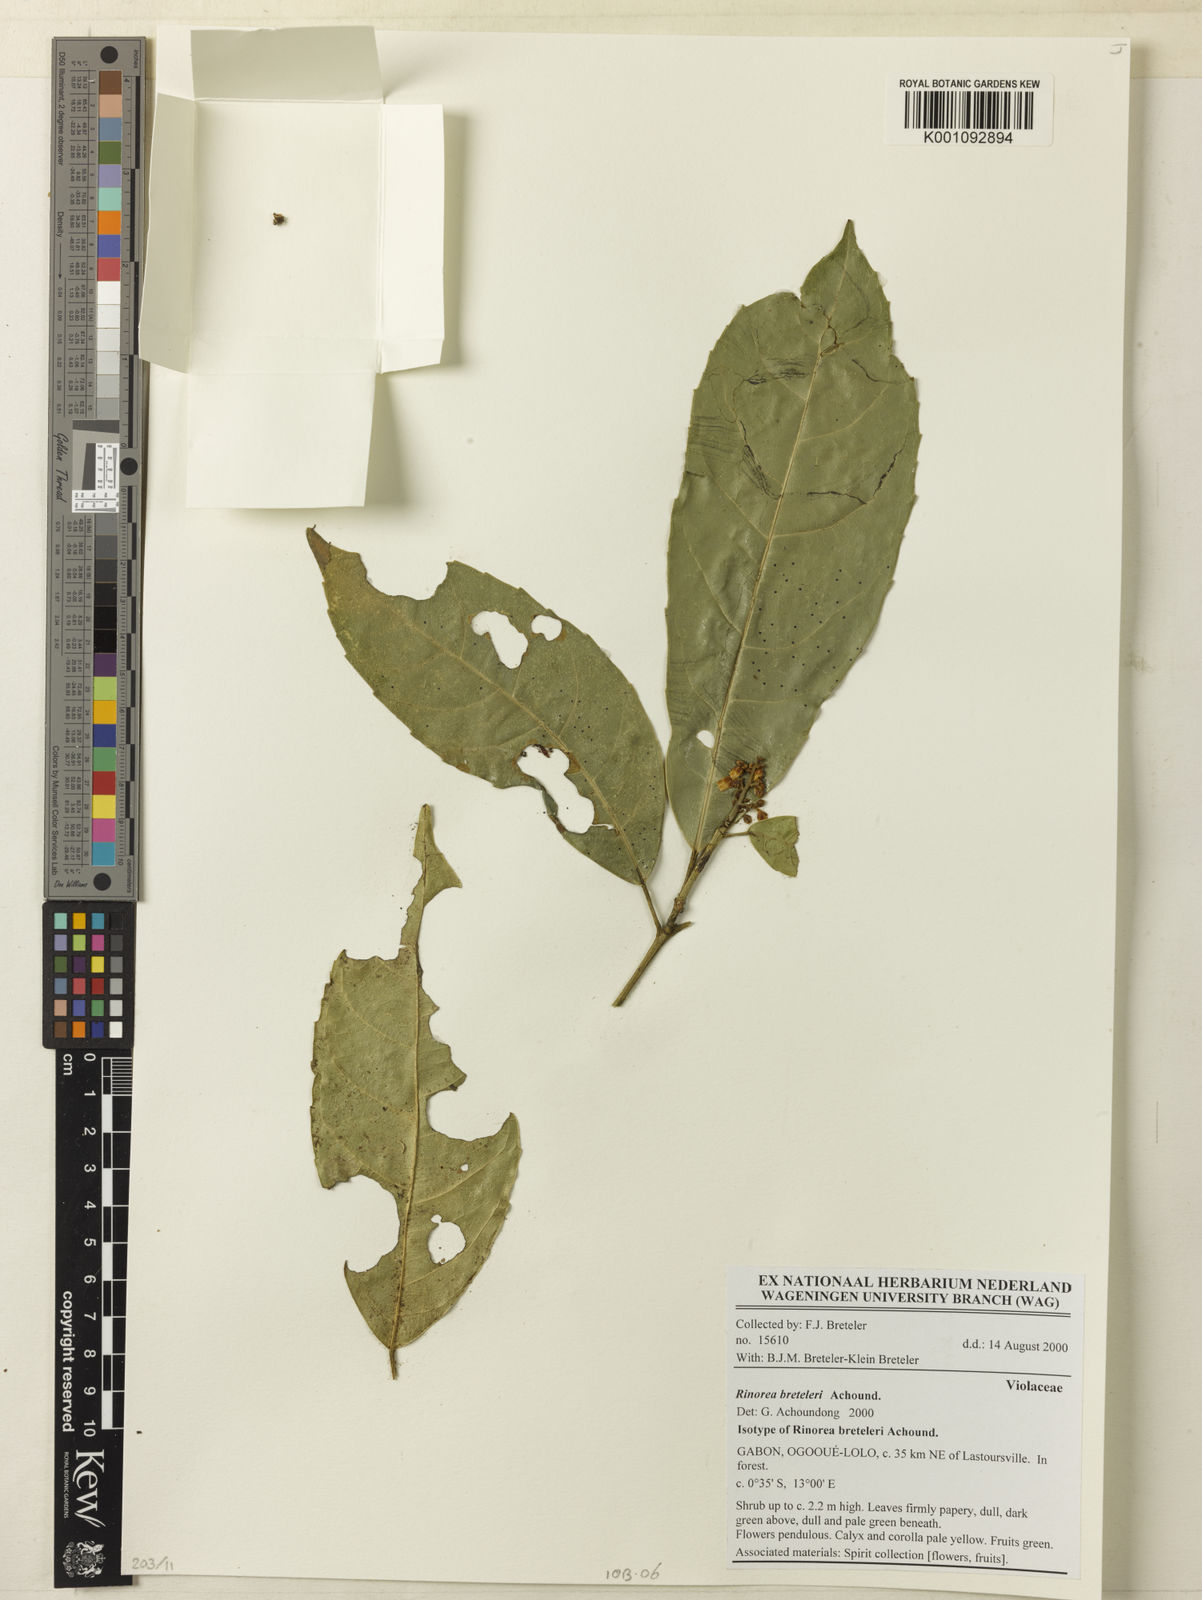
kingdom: Plantae
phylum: Tracheophyta
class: Magnoliopsida
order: Malpighiales
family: Violaceae
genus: Rinorea
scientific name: Rinorea breteleri
